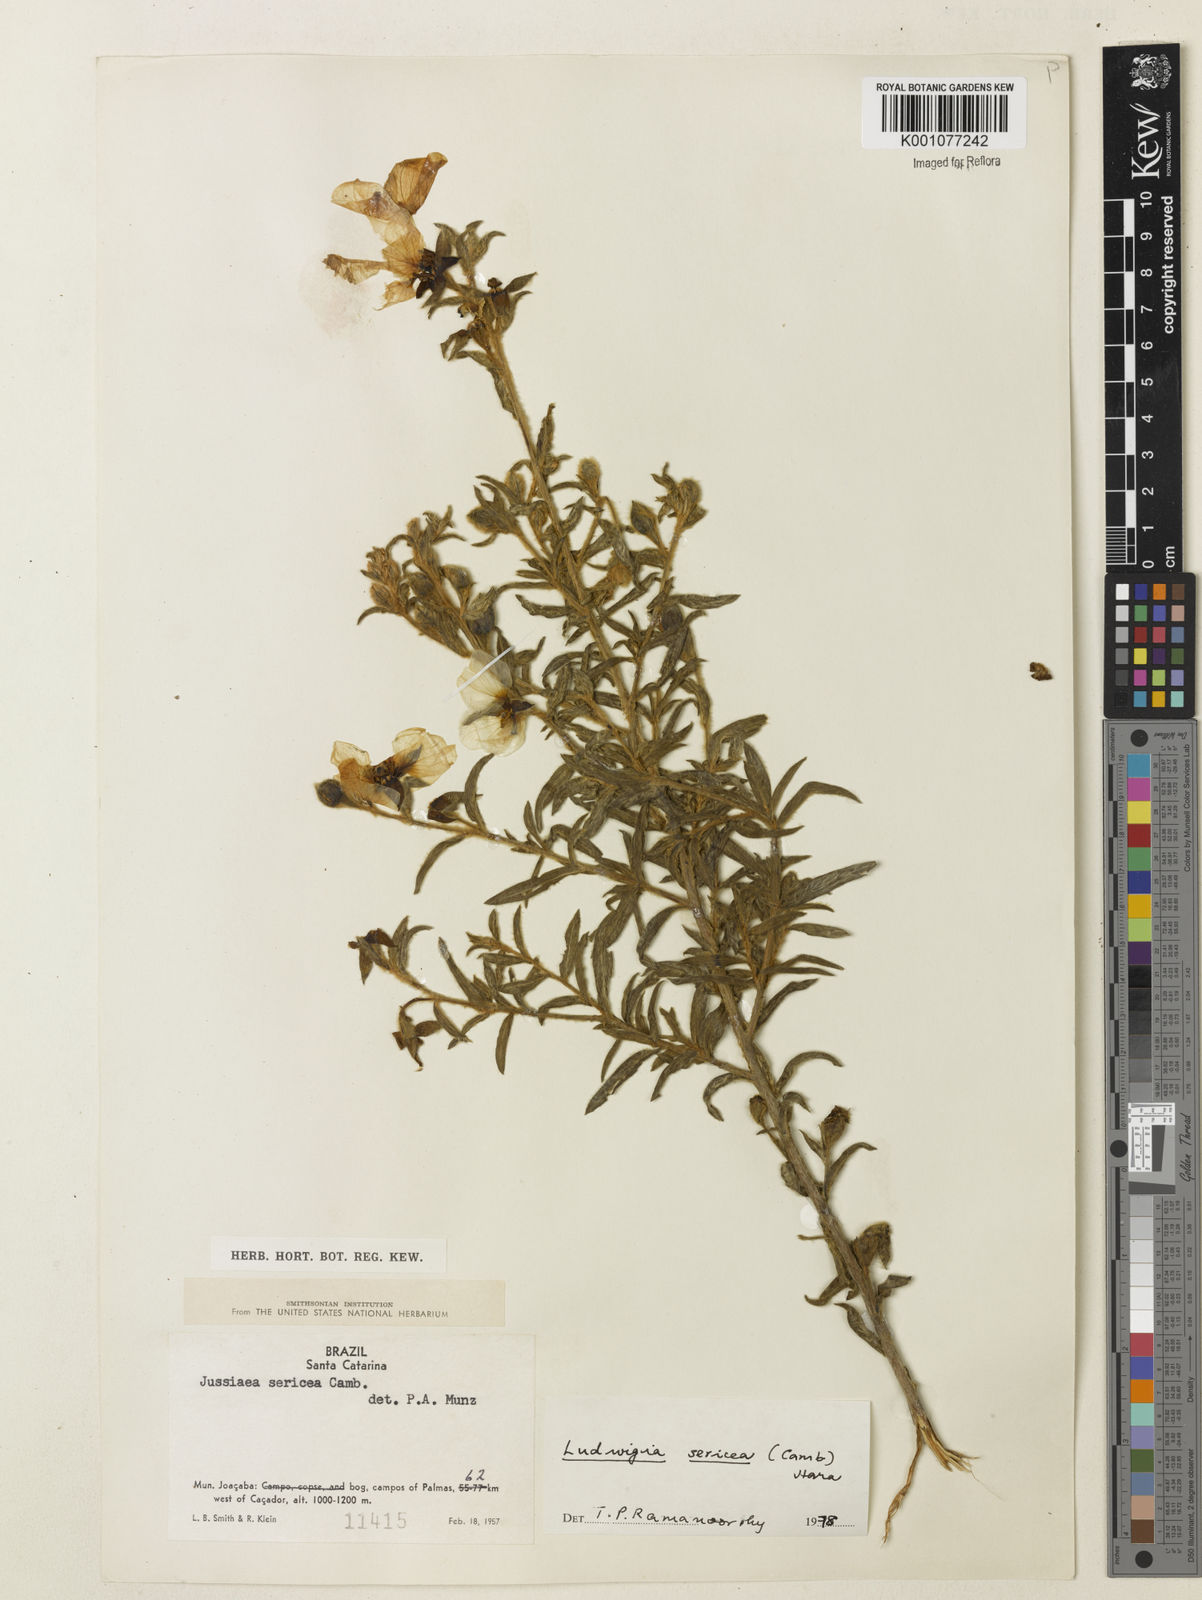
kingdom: Plantae
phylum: Tracheophyta
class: Magnoliopsida
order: Myrtales
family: Onagraceae
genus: Ludwigia
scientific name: Ludwigia sericea
